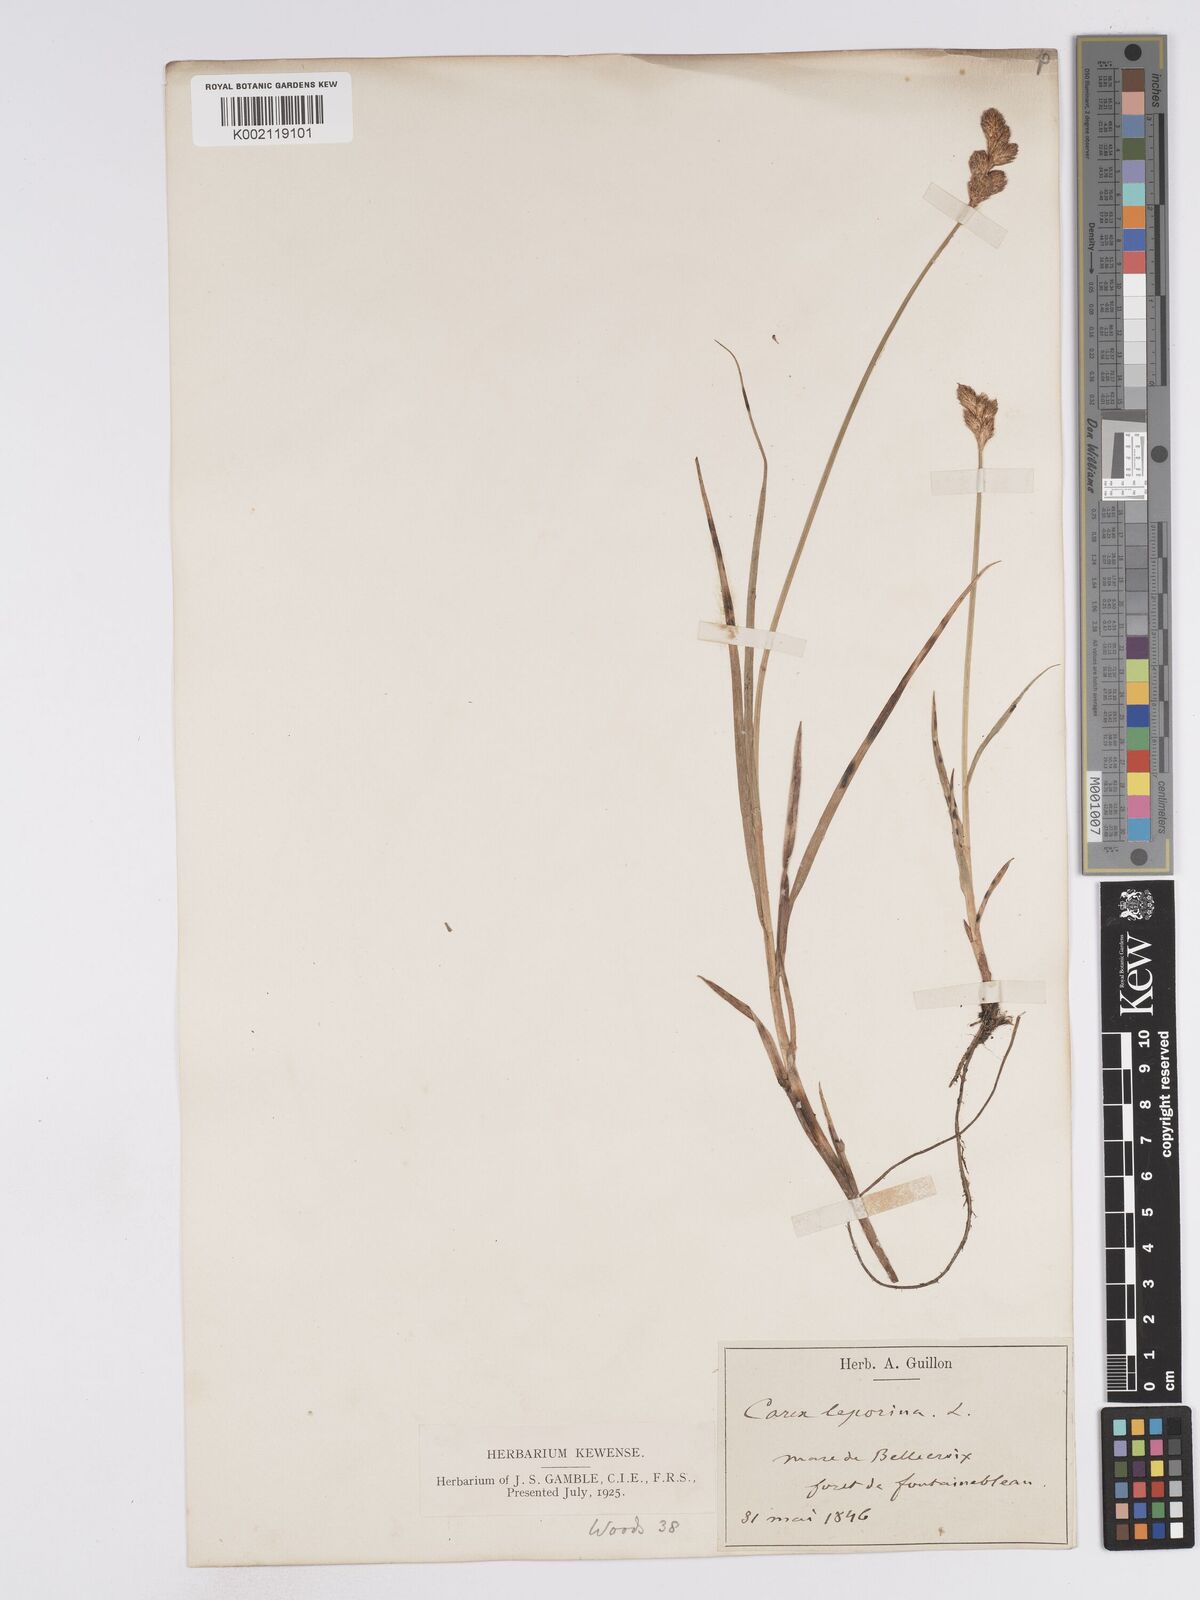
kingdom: Plantae
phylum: Tracheophyta
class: Liliopsida
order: Poales
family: Cyperaceae
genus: Carex
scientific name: Carex leporina
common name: Oval sedge
